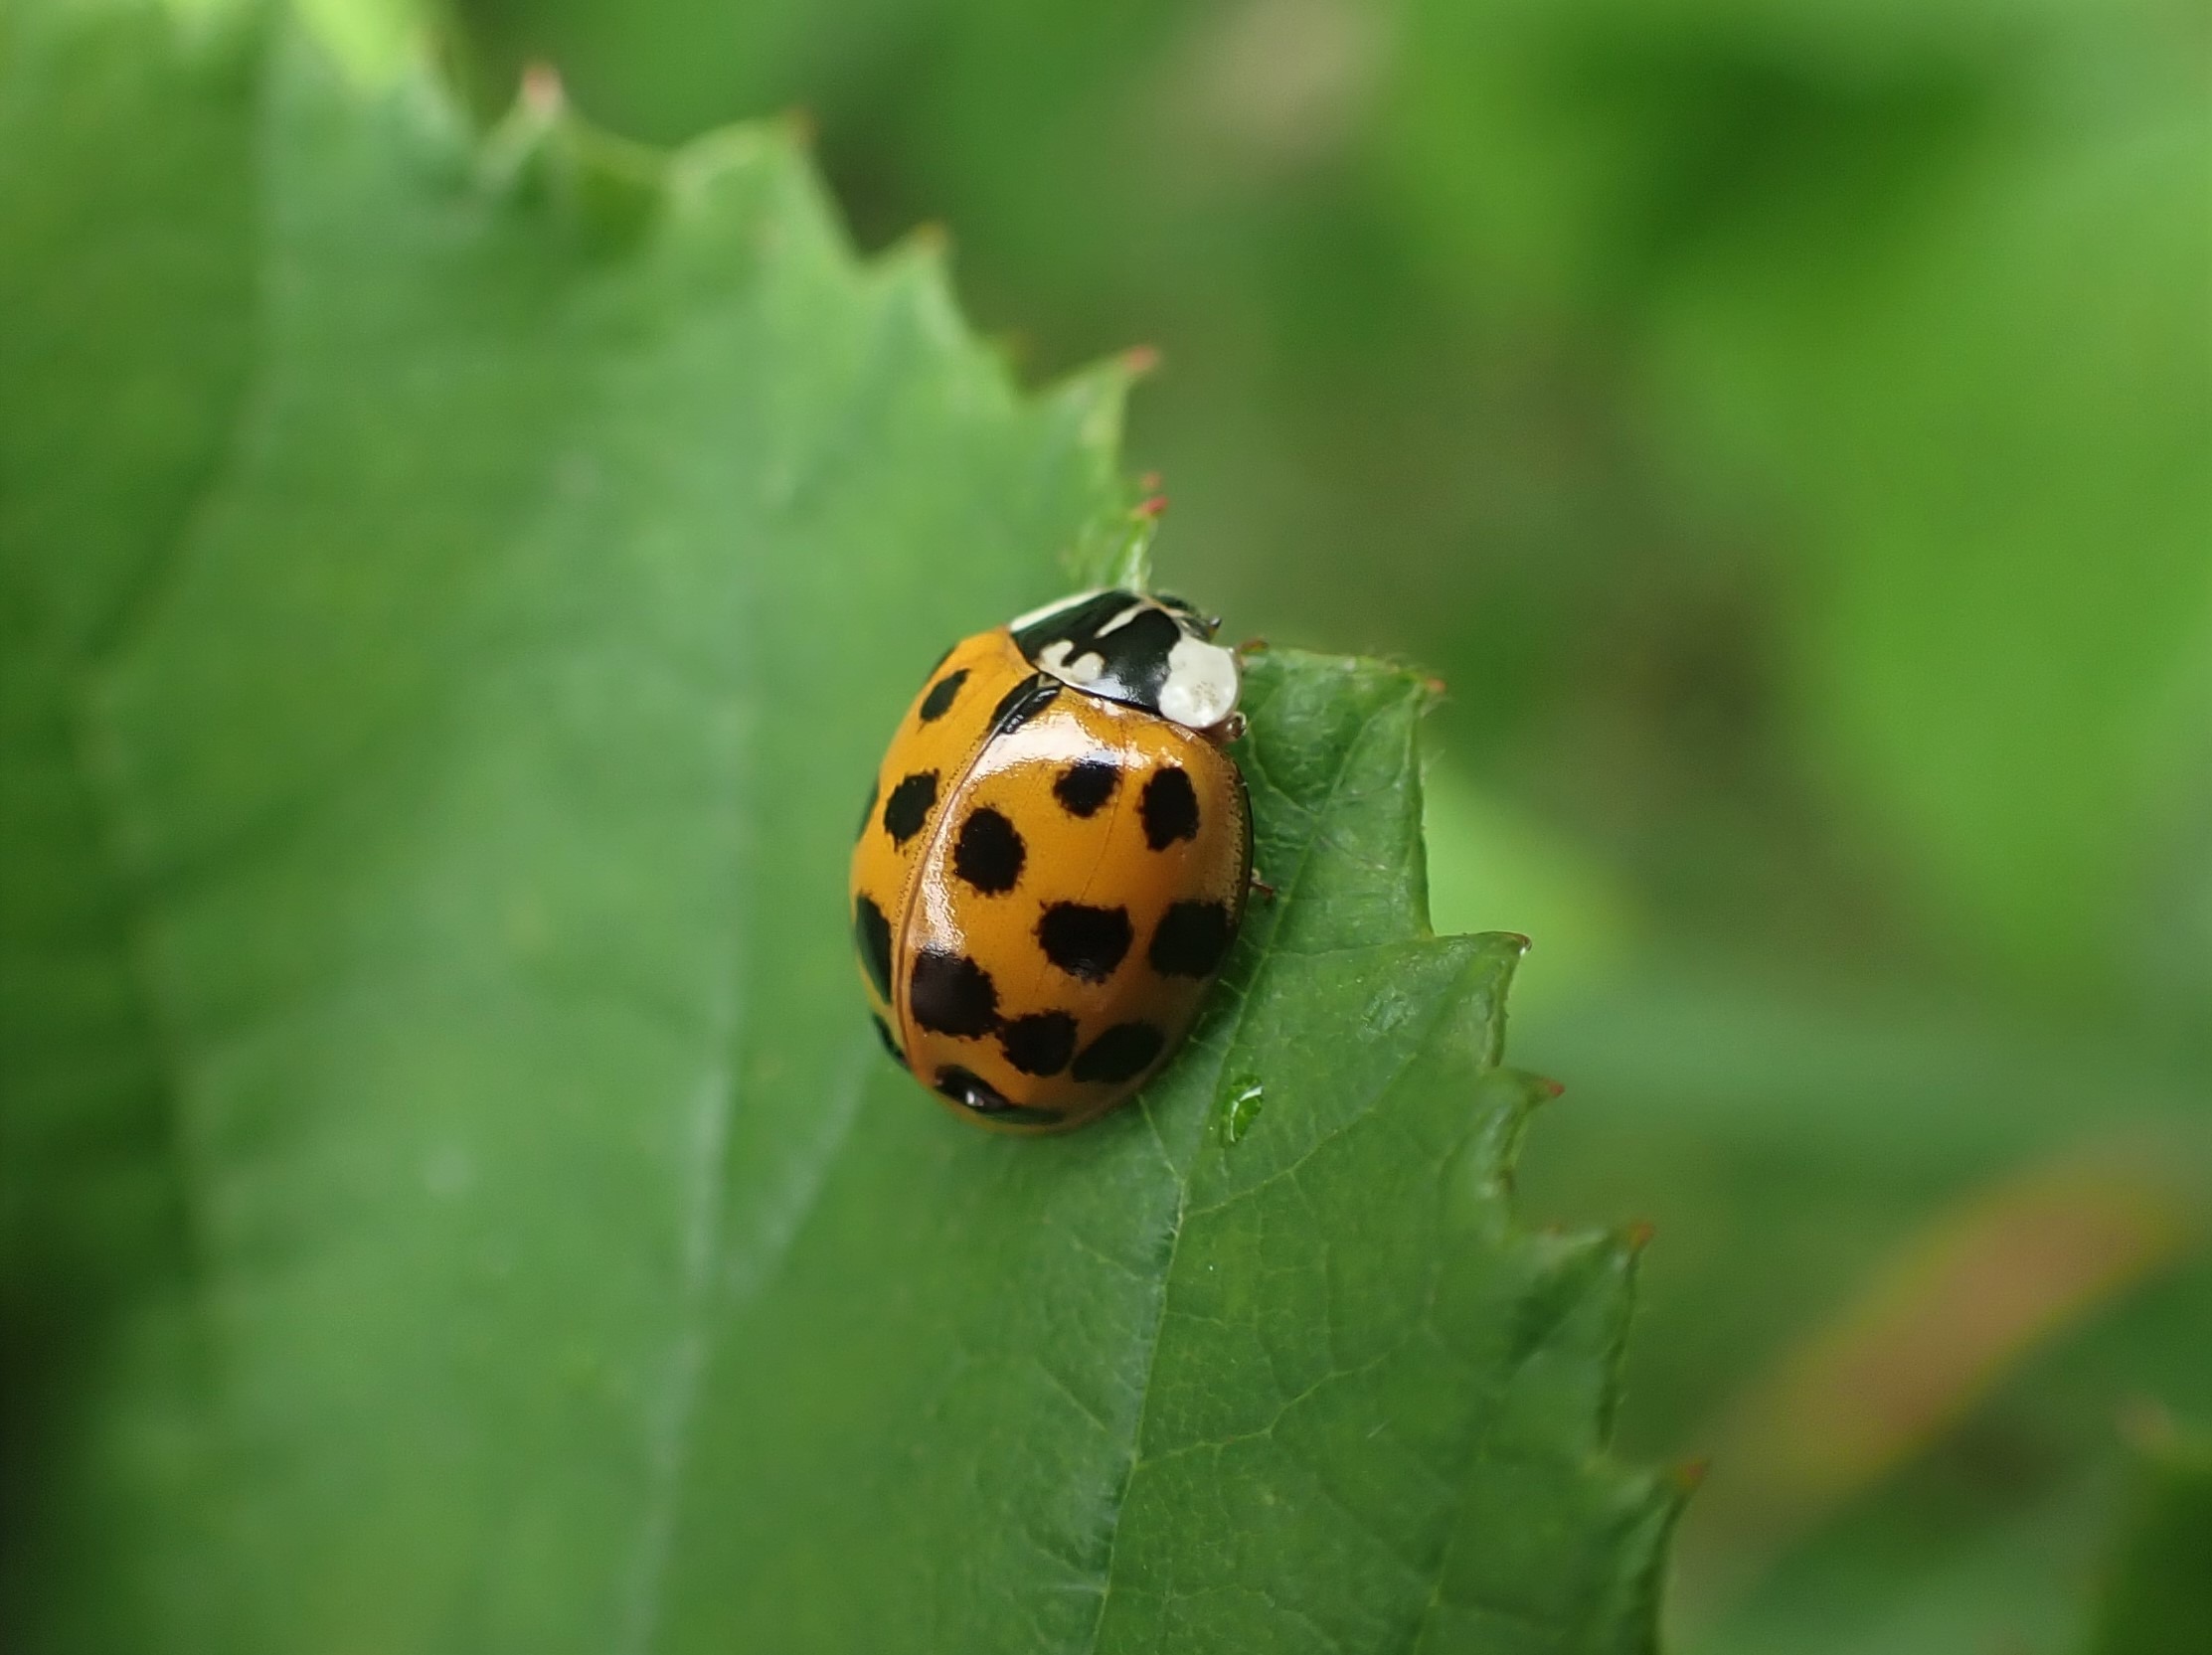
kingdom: Animalia
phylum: Arthropoda
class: Insecta
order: Coleoptera
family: Coccinellidae
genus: Harmonia
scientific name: Harmonia axyridis
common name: Harlekinmariehøne
